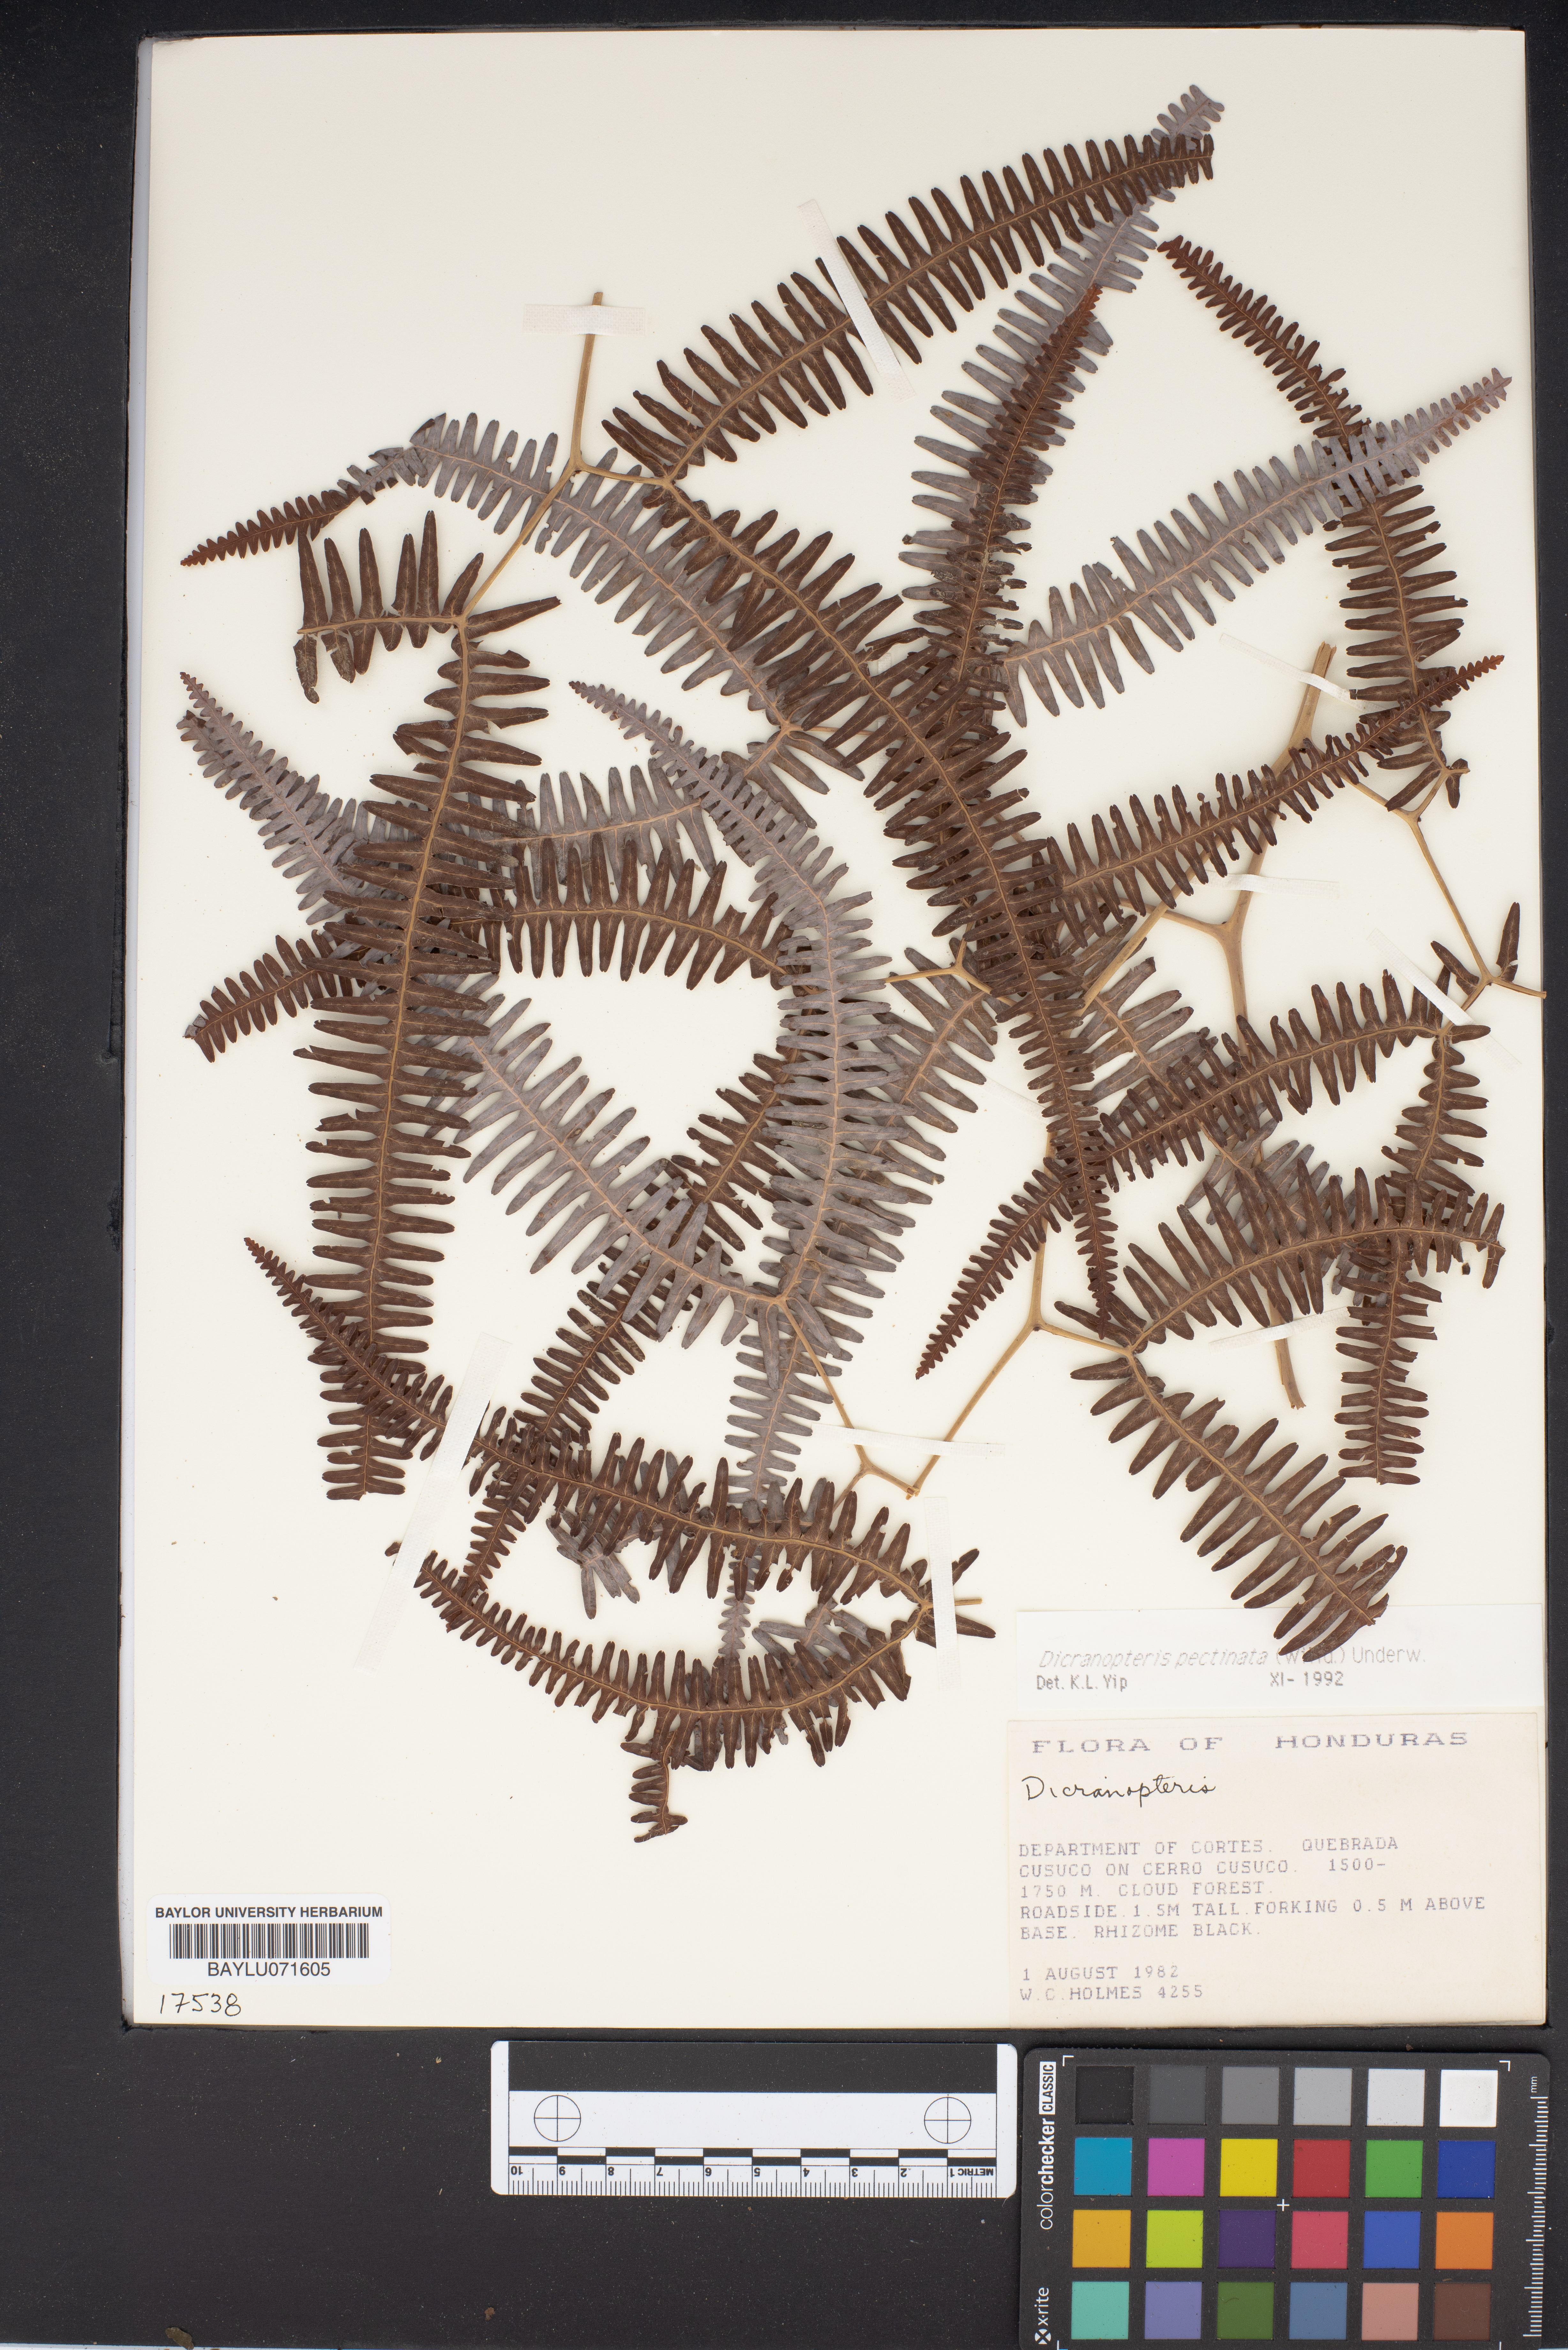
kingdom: Plantae
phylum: Tracheophyta
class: Polypodiopsida
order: Gleicheniales
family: Gleicheniaceae
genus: Dicranopteris
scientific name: Dicranopteris
